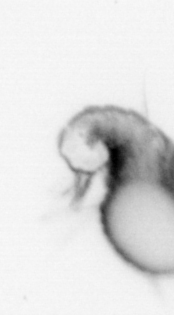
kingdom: Animalia
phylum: Annelida
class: Polychaeta
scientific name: Polychaeta
